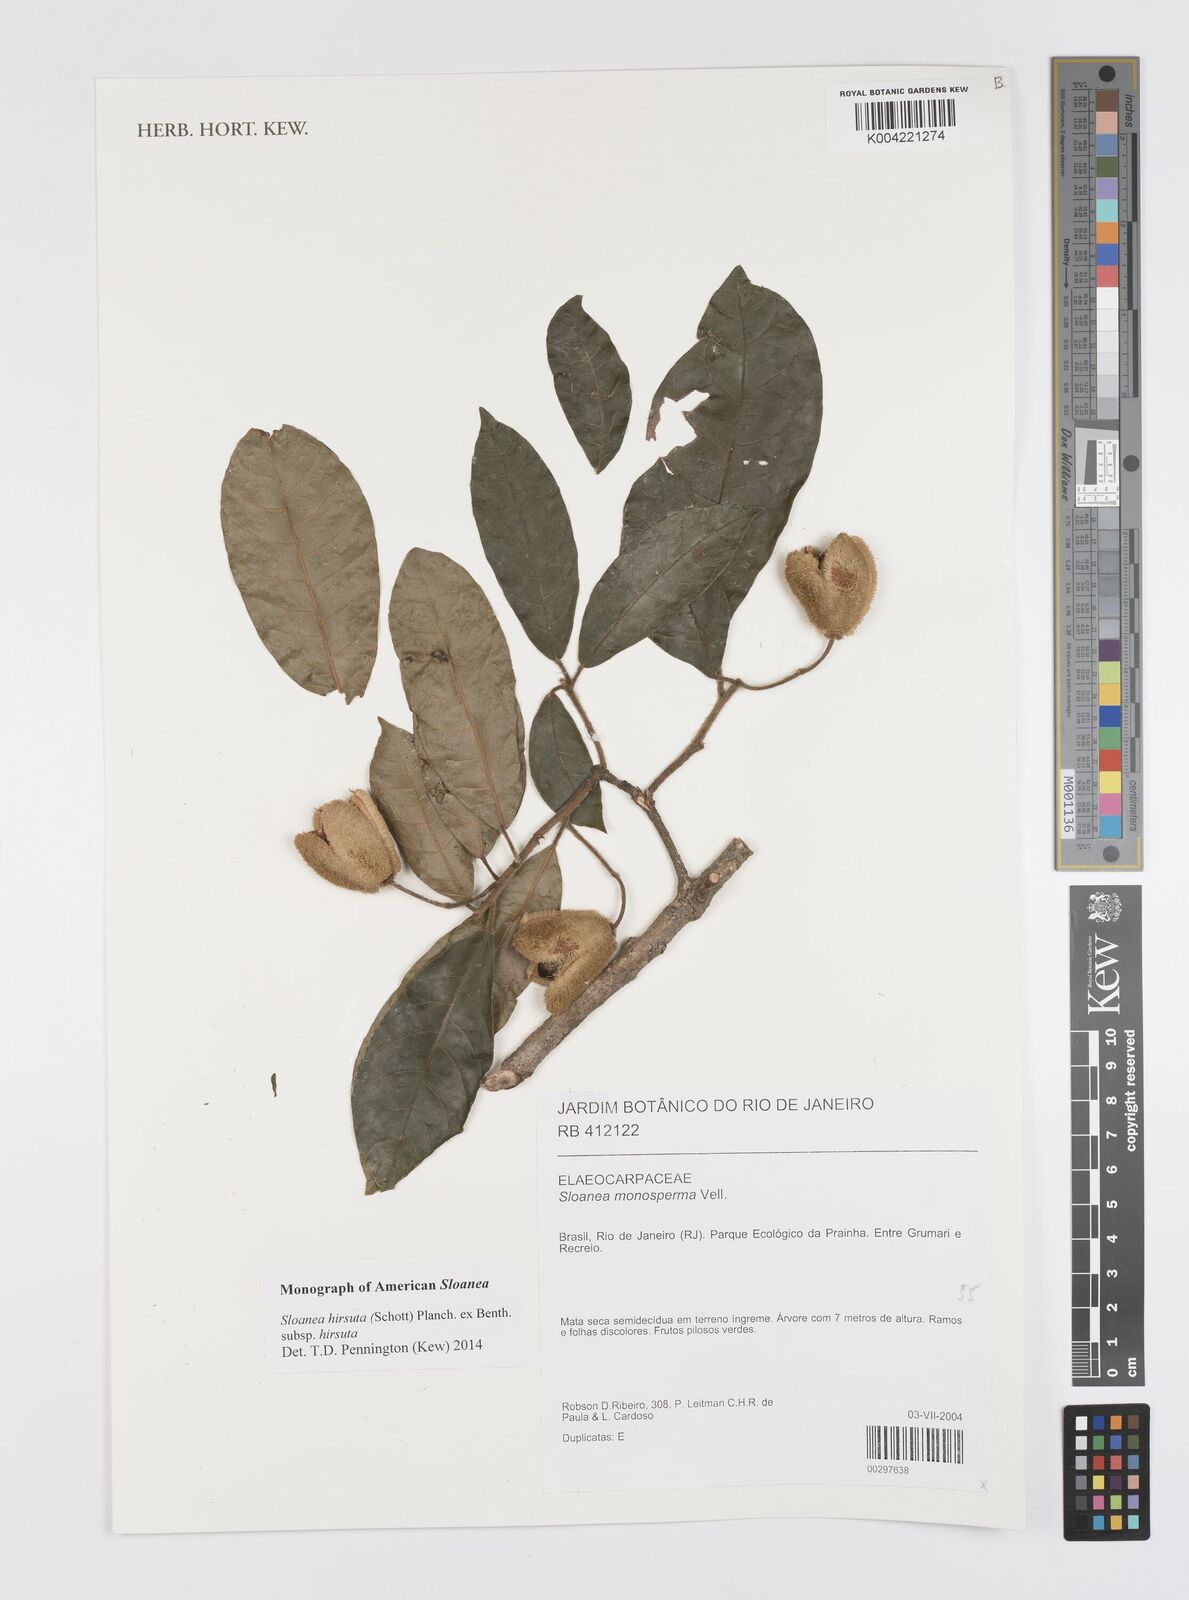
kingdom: Plantae
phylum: Tracheophyta
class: Magnoliopsida
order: Oxalidales
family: Elaeocarpaceae
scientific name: Elaeocarpaceae
